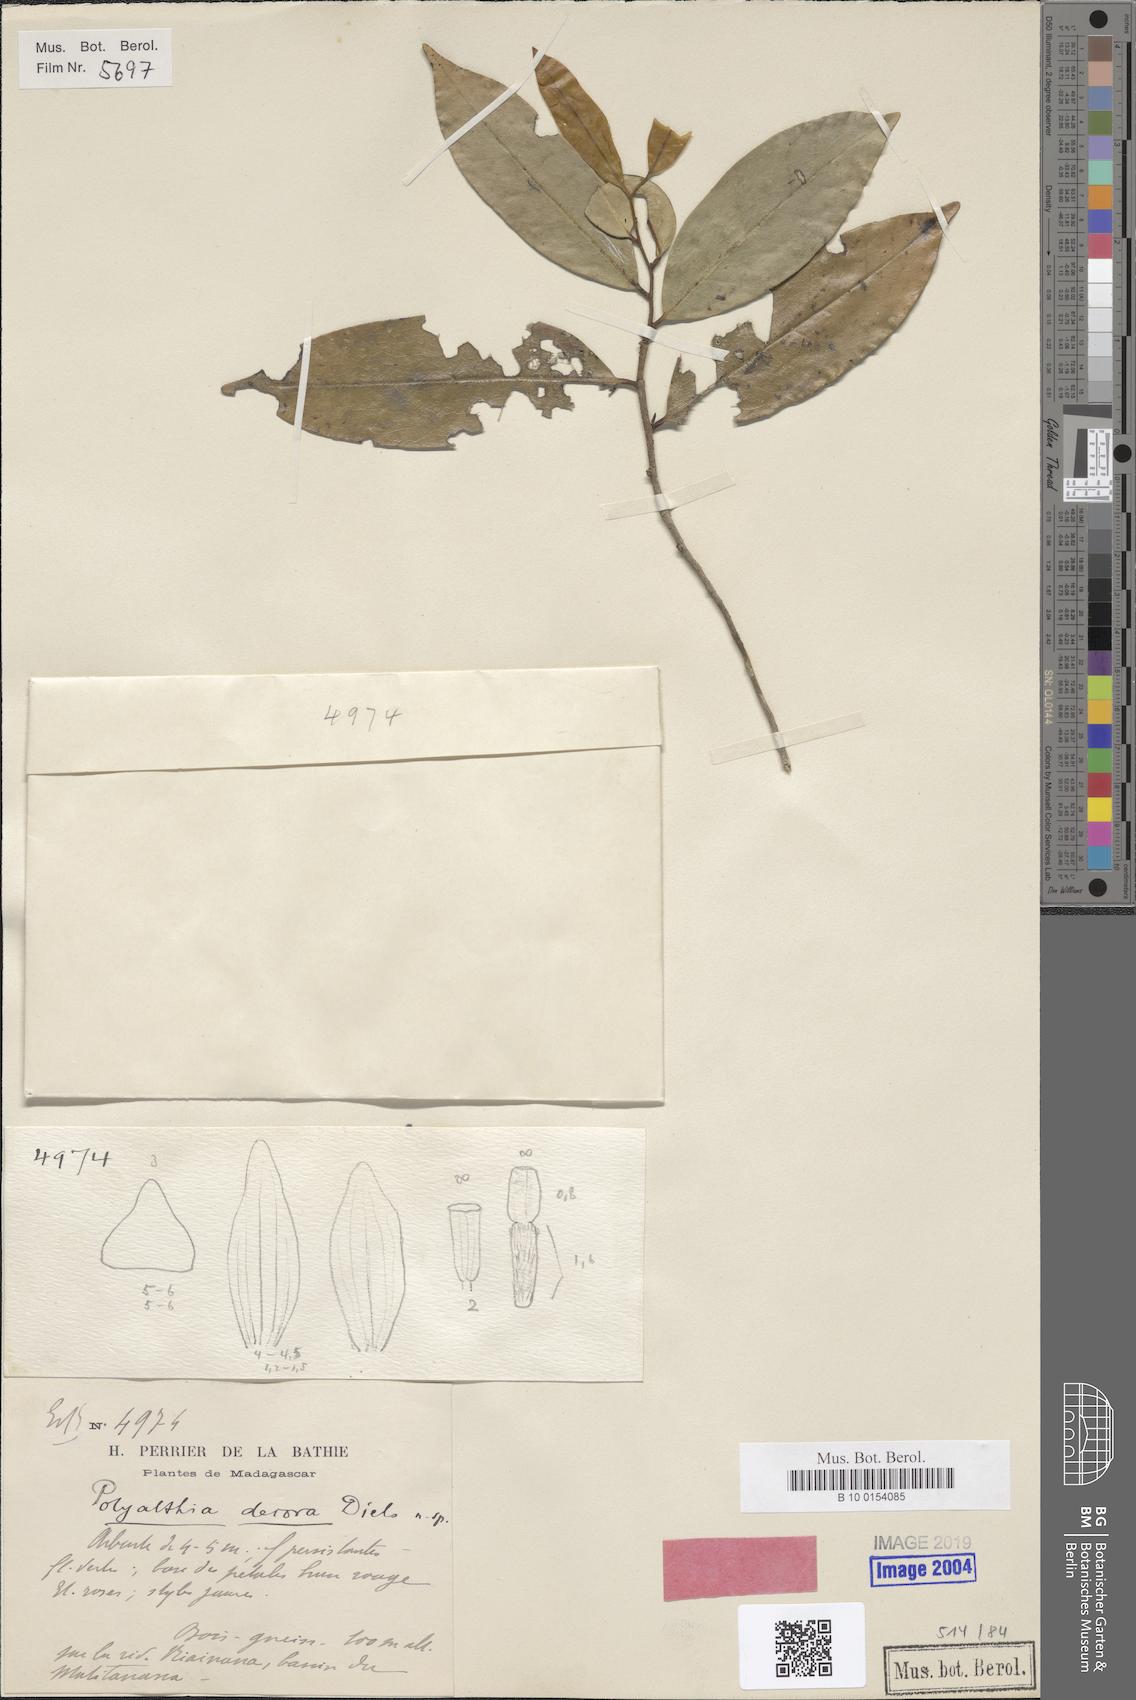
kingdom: Plantae
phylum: Tracheophyta
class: Magnoliopsida
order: Magnoliales
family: Annonaceae
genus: Hubera
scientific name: Hubera decora
